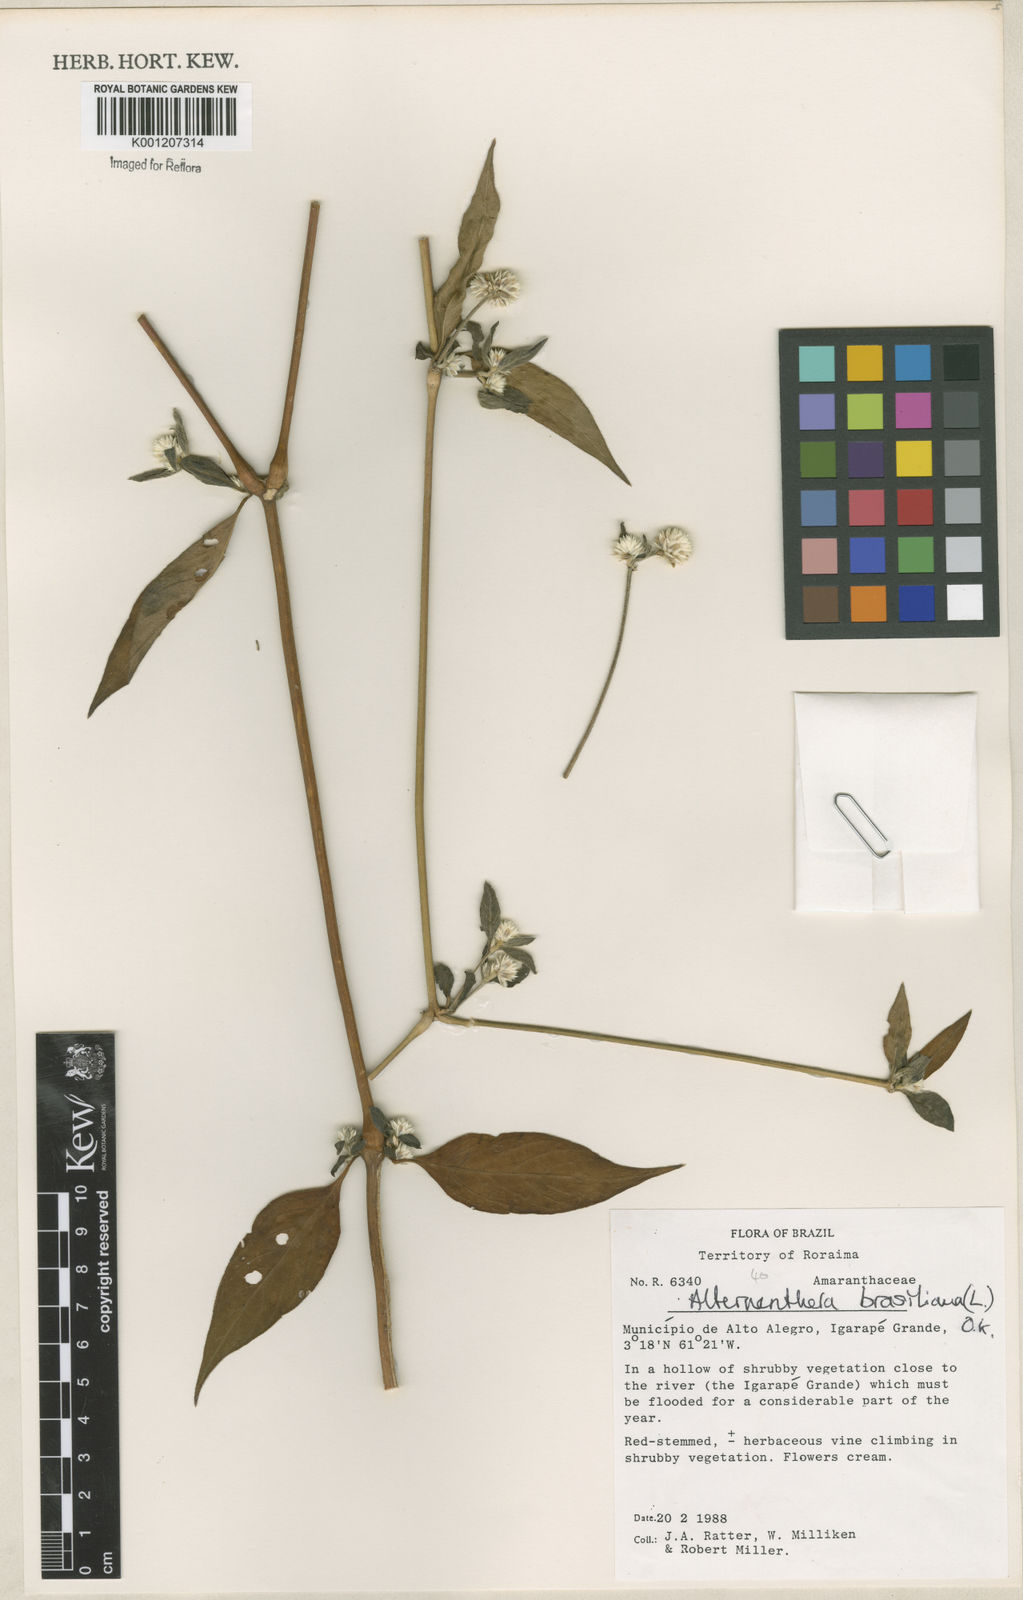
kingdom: Plantae
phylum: Tracheophyta
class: Magnoliopsida
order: Caryophyllales
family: Amaranthaceae
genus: Alternanthera
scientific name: Alternanthera brasiliana
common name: Brazilian joyweed
